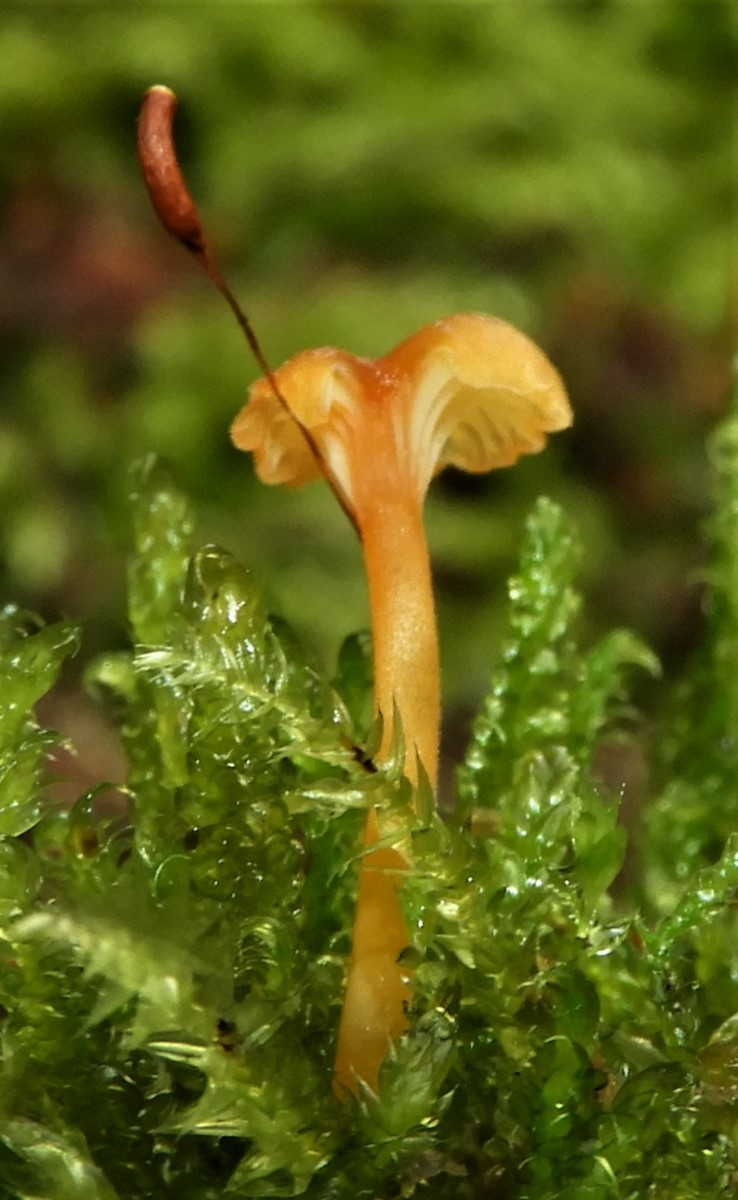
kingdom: Fungi
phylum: Basidiomycota
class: Agaricomycetes
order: Hymenochaetales
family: Rickenellaceae
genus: Rickenella
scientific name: Rickenella fibula
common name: orange mosnavlehat
